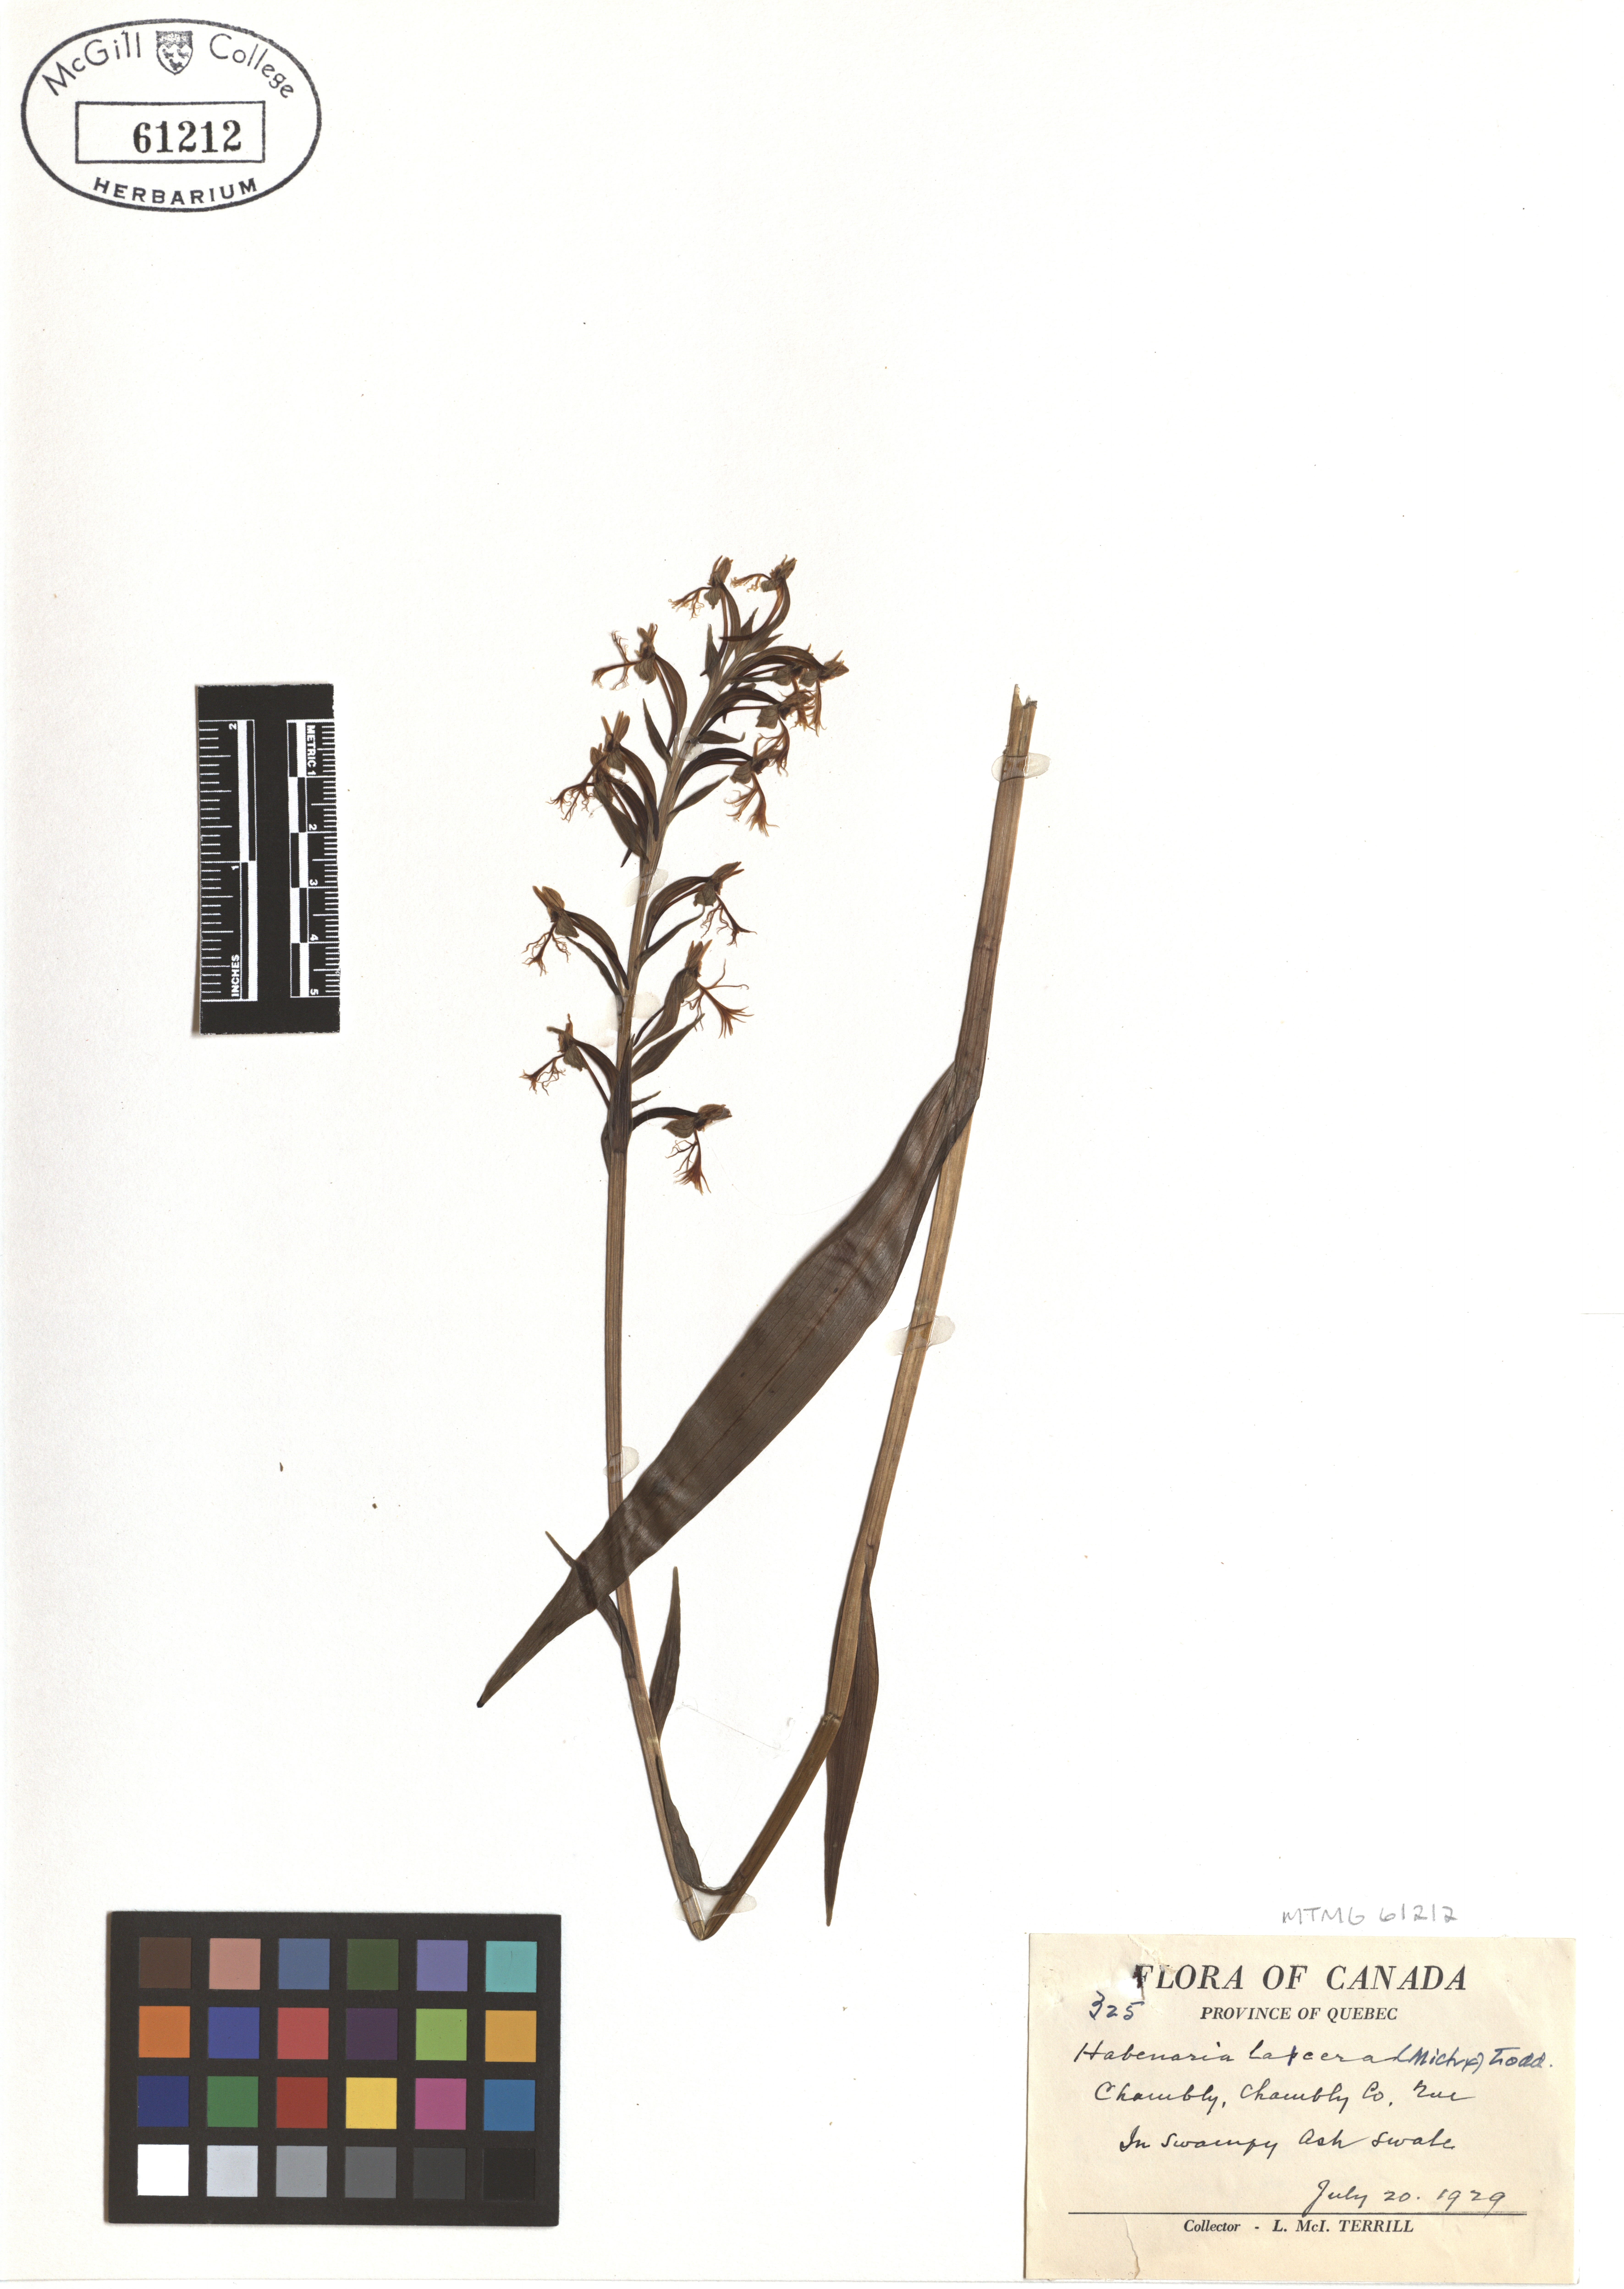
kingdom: Plantae
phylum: Tracheophyta
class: Liliopsida
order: Asparagales
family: Orchidaceae
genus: Platanthera
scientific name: Platanthera lacera
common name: Green fringed orchid
